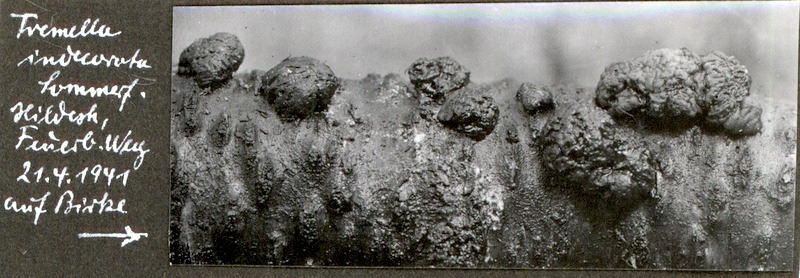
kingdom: Fungi
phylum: Basidiomycota
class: Tremellomycetes
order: Tremellales
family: Tremellaceae
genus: Tremella
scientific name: Tremella indecorata
